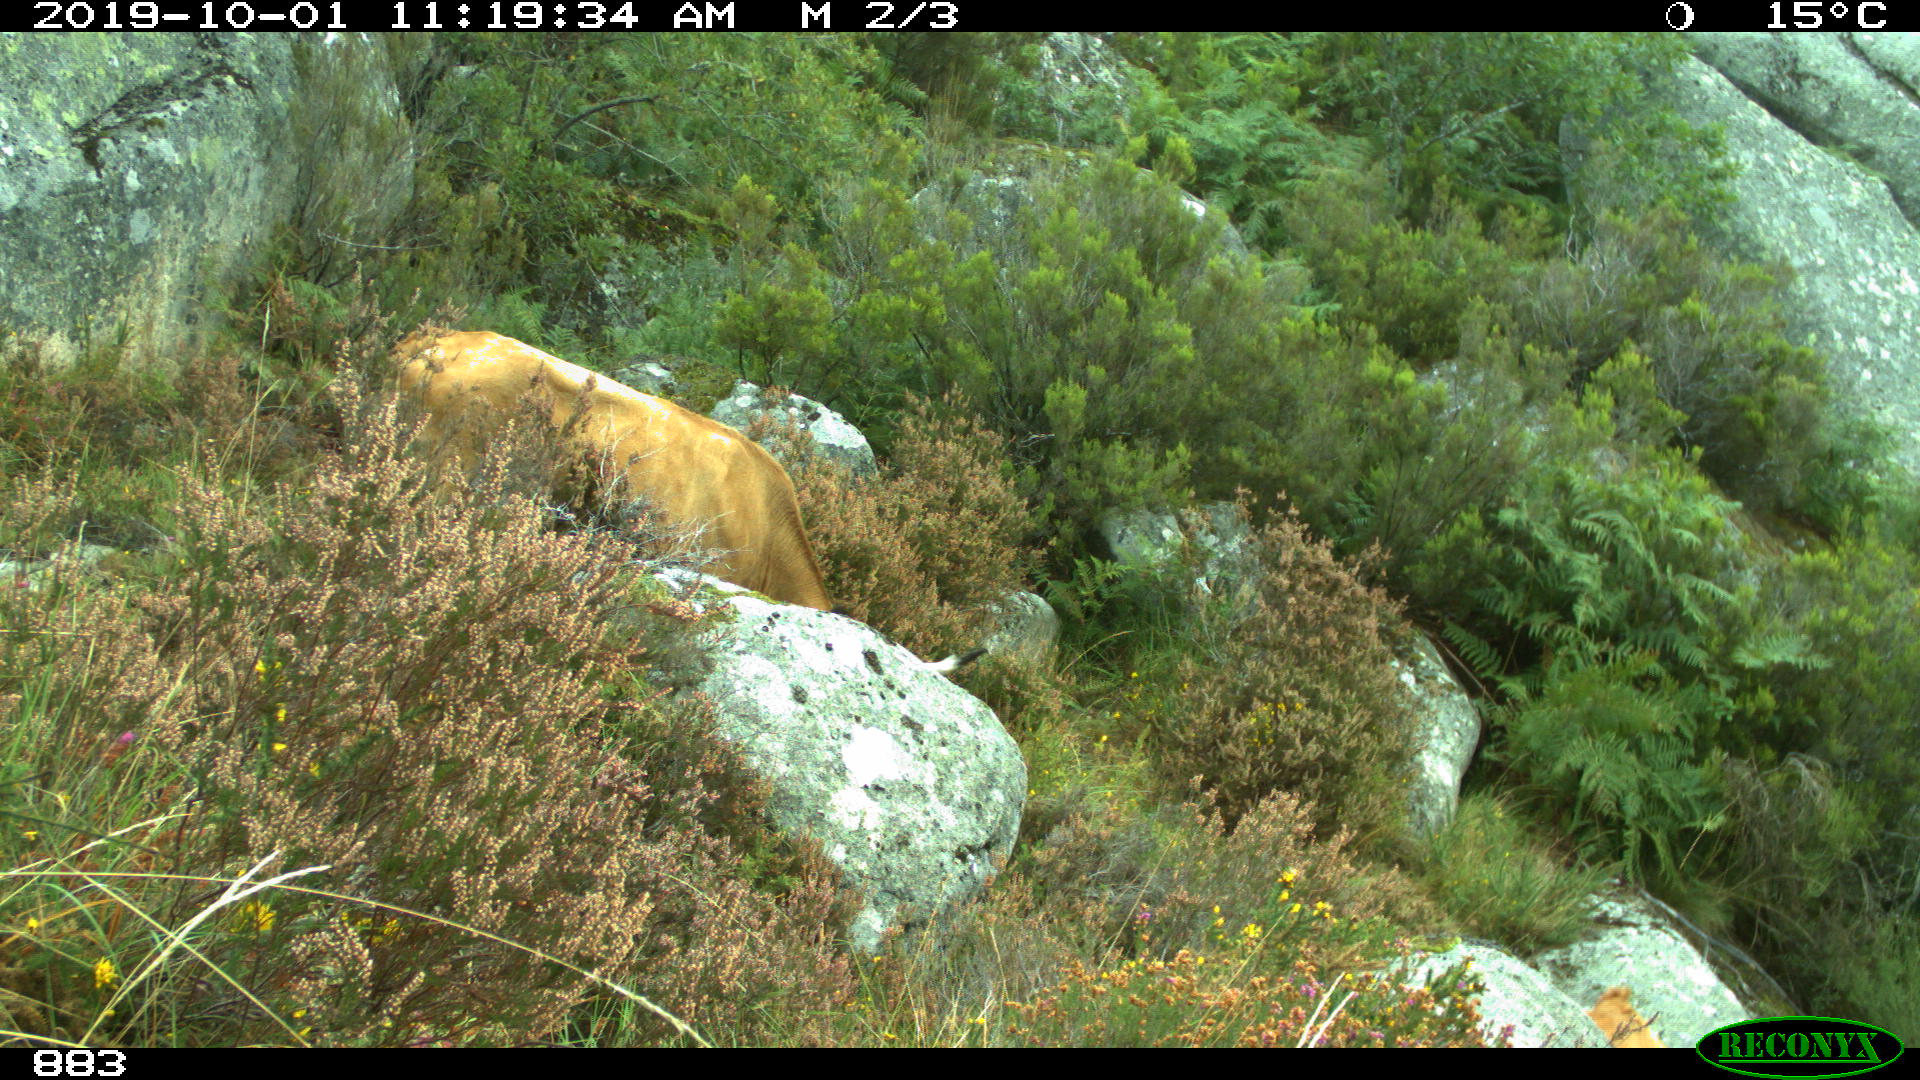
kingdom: Animalia
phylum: Chordata
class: Mammalia
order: Artiodactyla
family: Bovidae
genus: Bos
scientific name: Bos taurus
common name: Domesticated cattle
